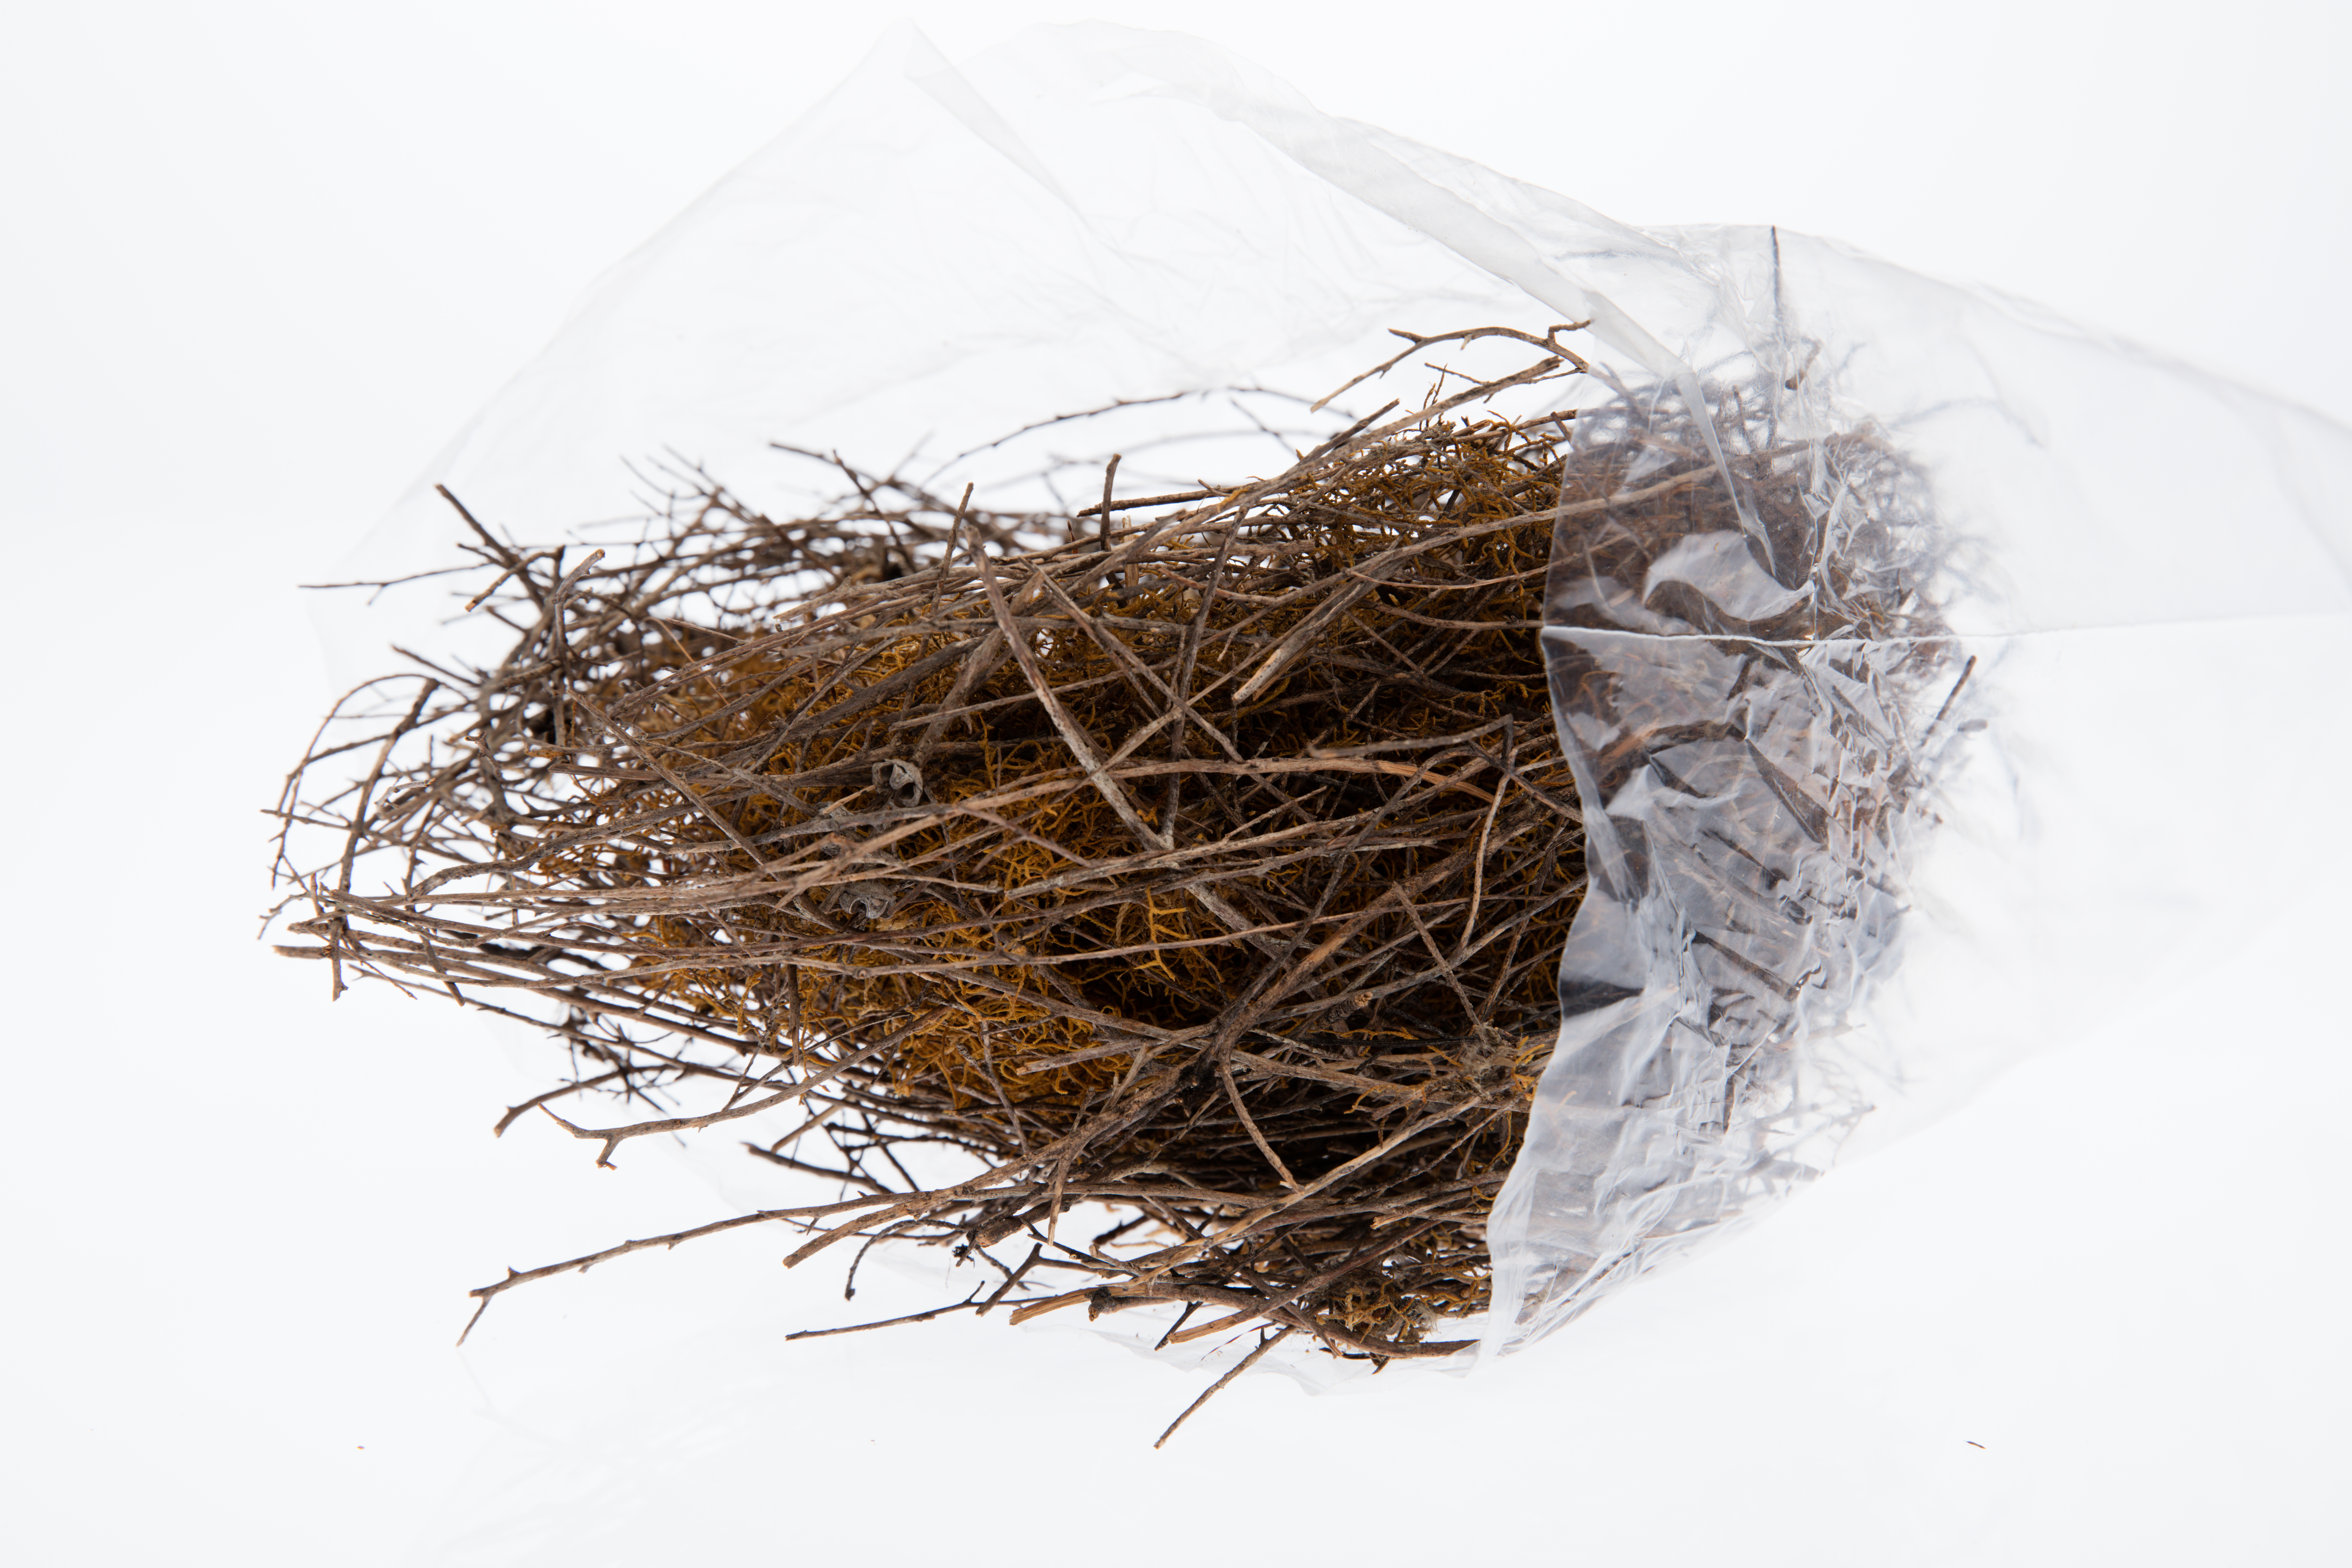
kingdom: Animalia
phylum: Chordata
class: Aves
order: Passeriformes
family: Meliphagidae
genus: Prosthemadera
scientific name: Prosthemadera novaeseelandiae
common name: Tui
